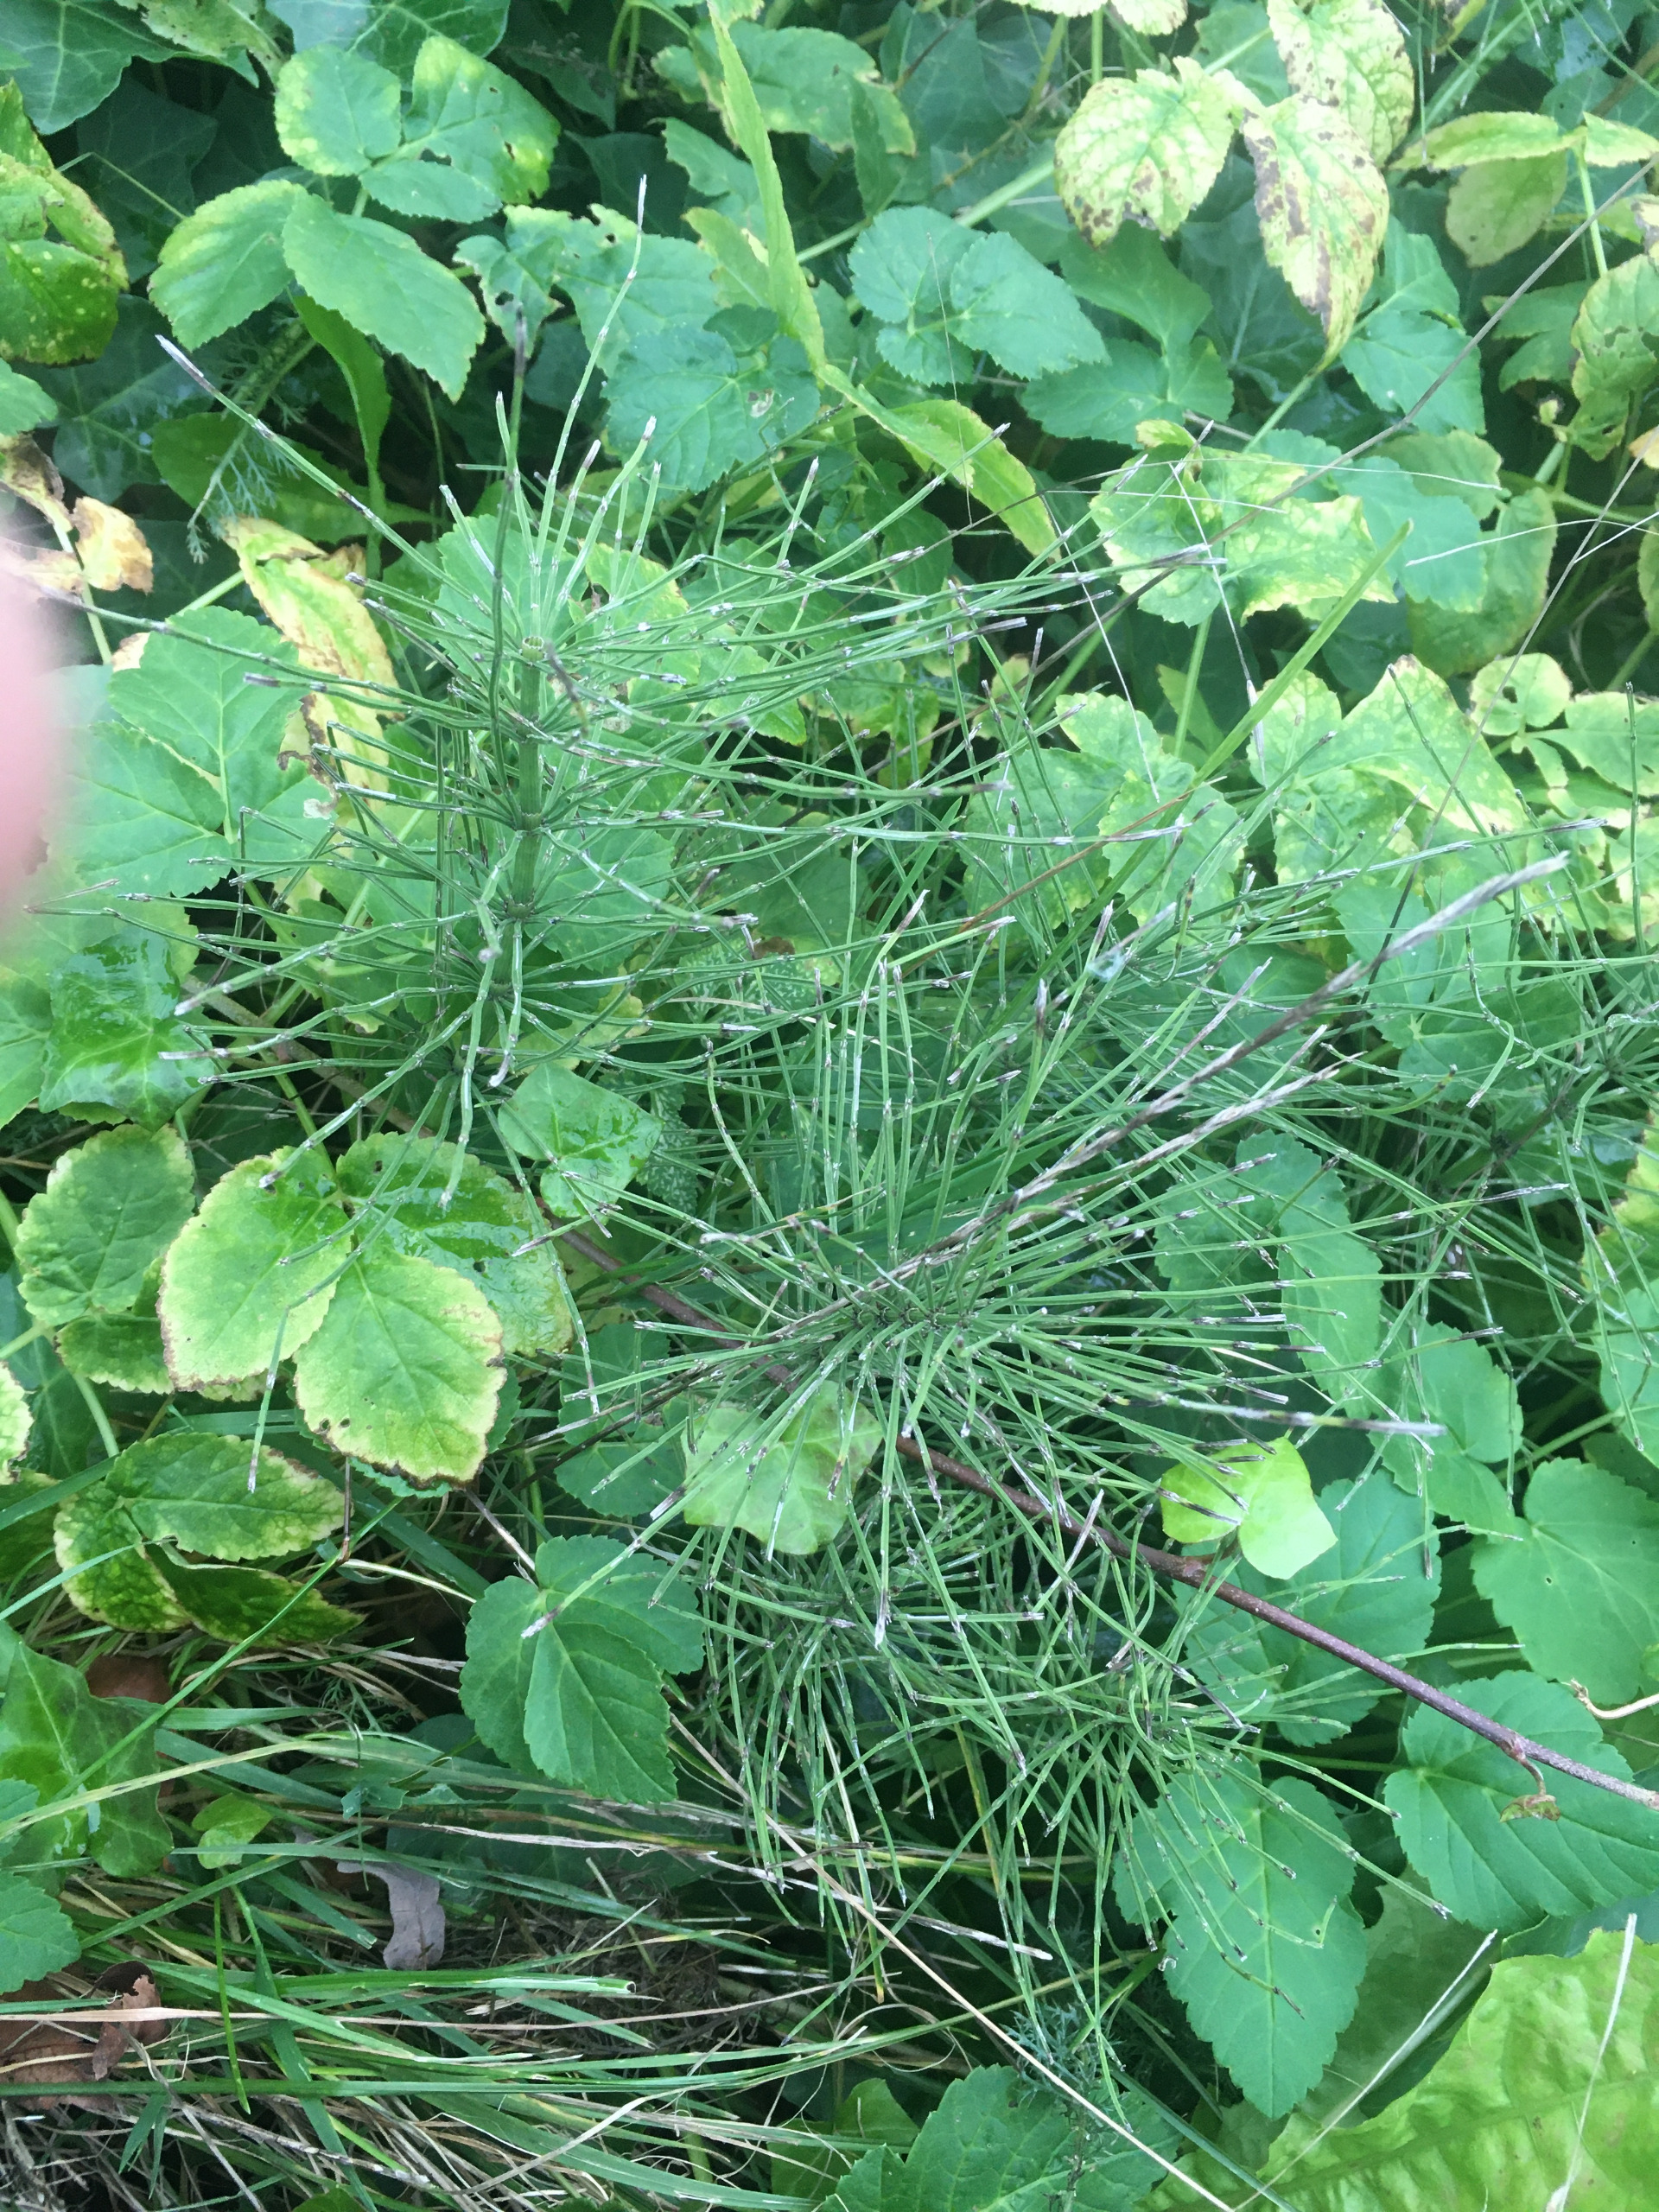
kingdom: Plantae
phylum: Tracheophyta
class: Polypodiopsida
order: Equisetales
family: Equisetaceae
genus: Equisetum
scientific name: Equisetum arvense
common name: Ager-padderok
